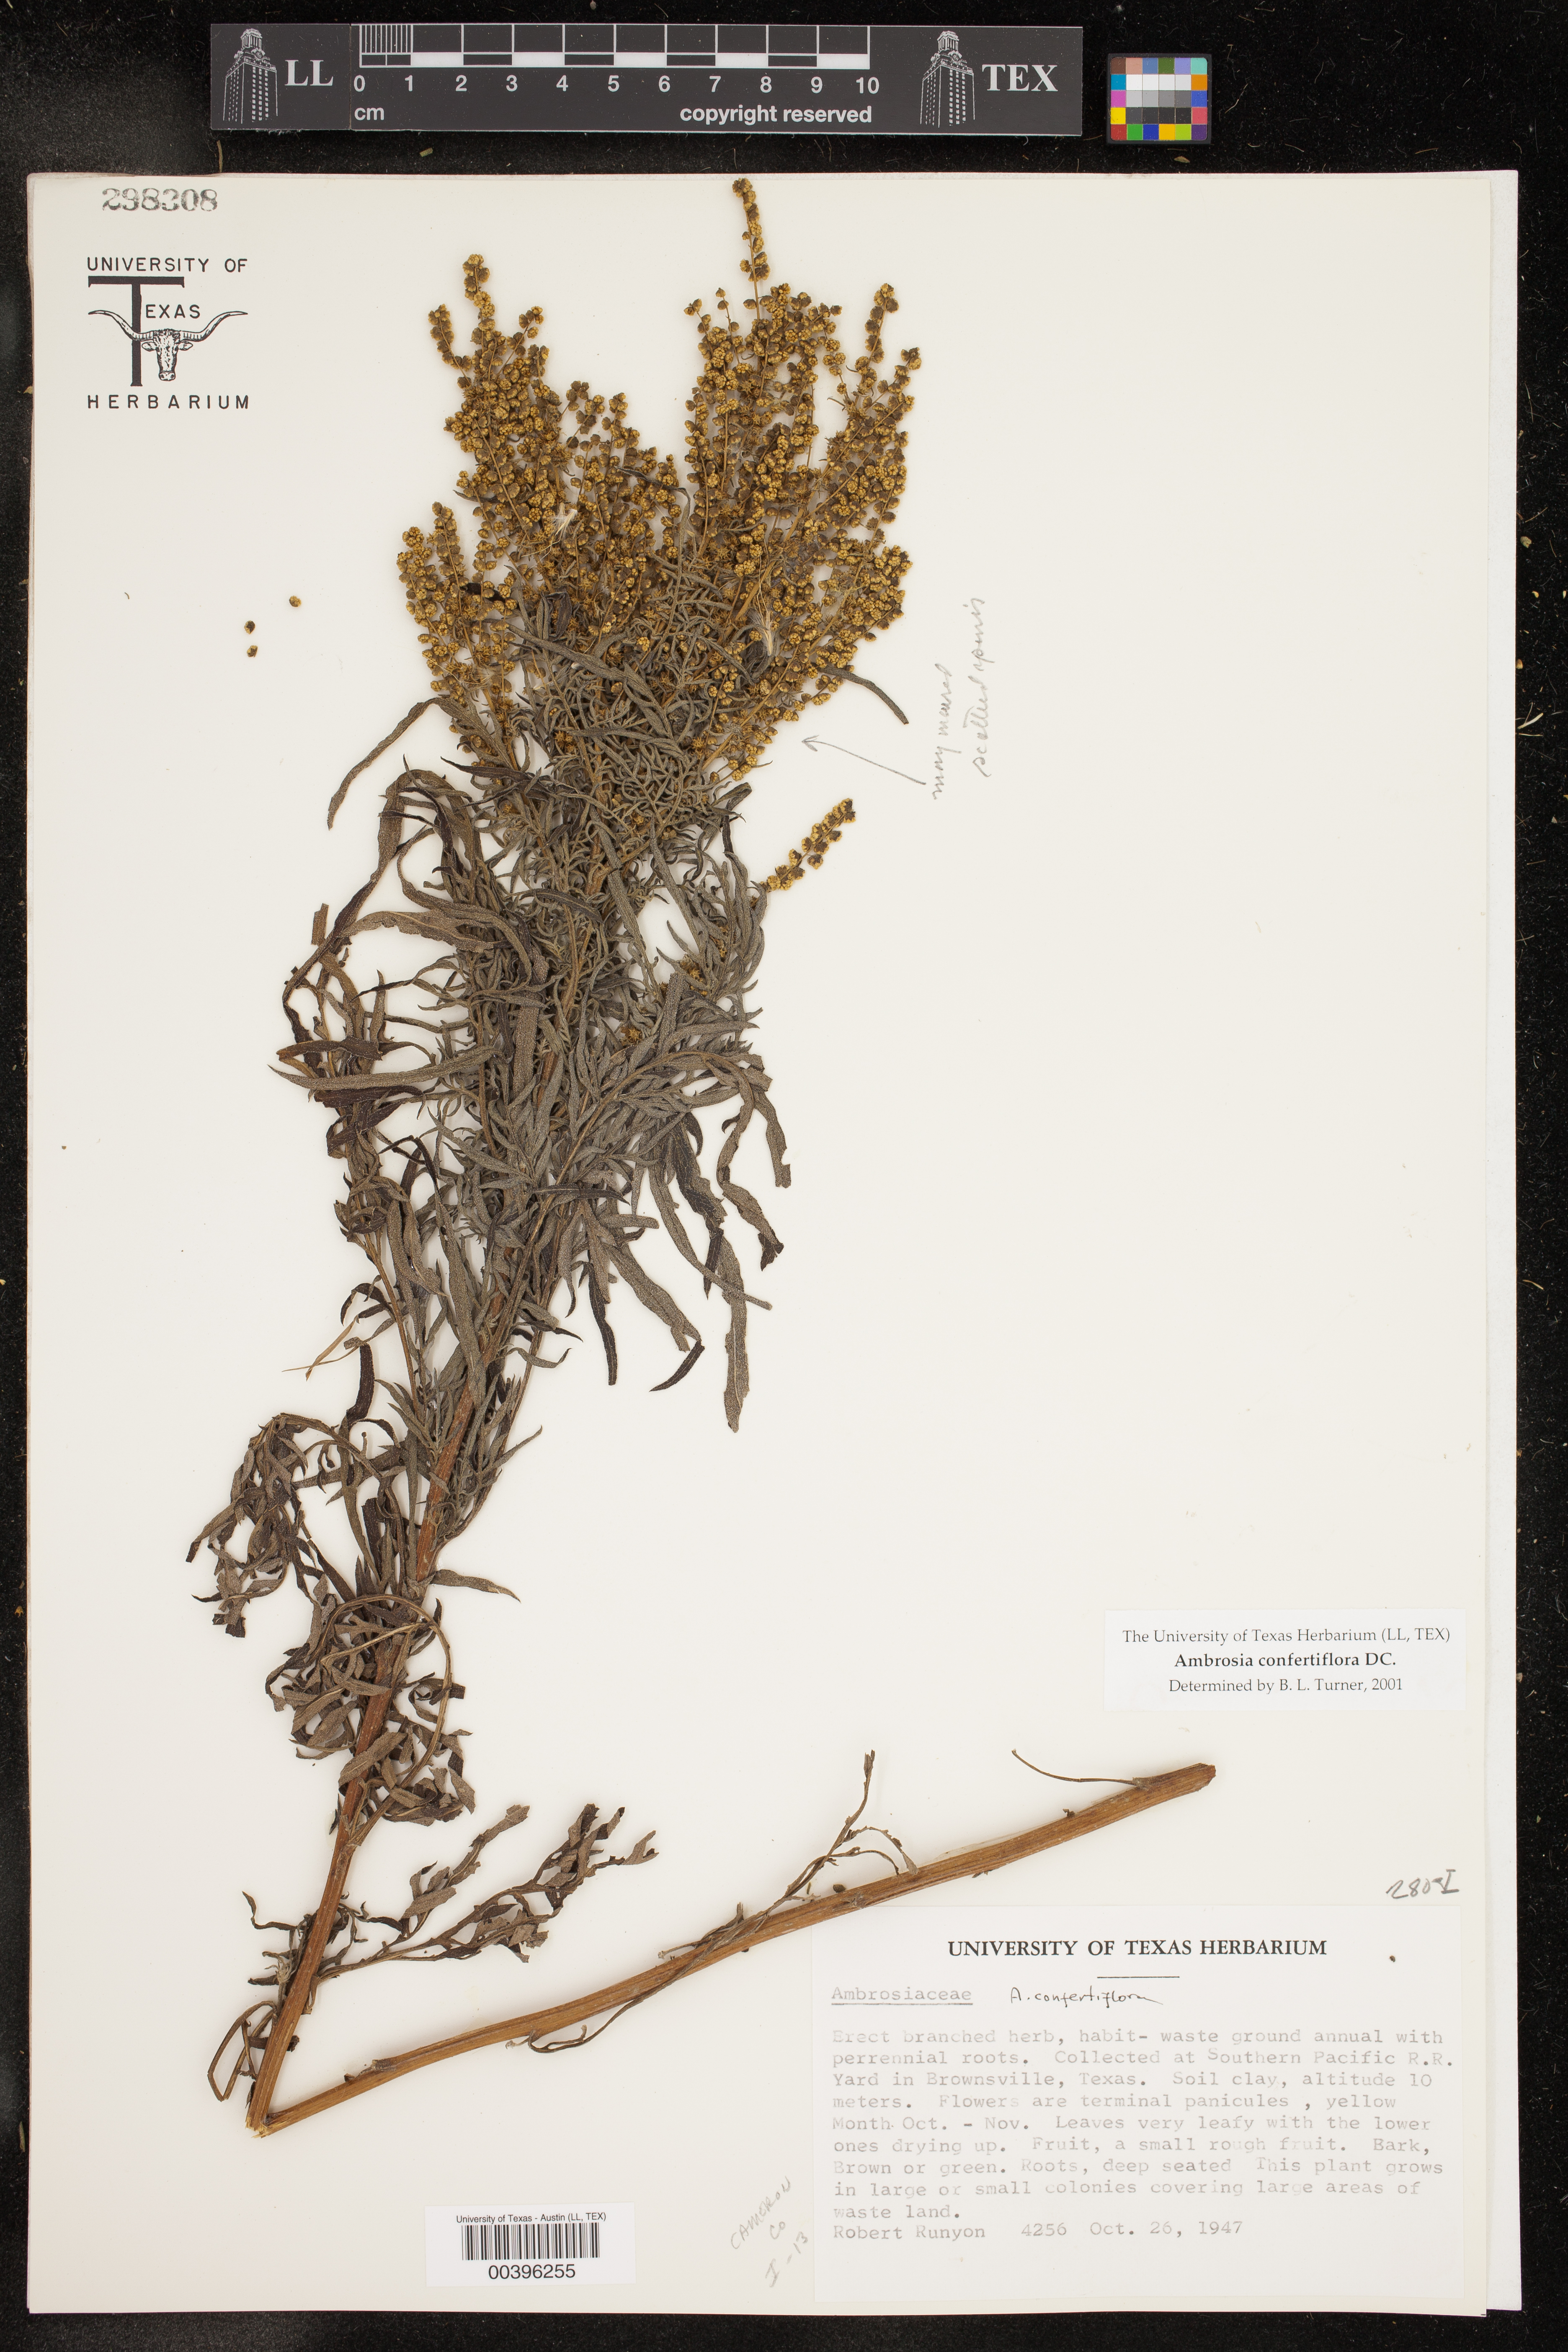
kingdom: Plantae
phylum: Tracheophyta
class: Magnoliopsida
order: Asterales
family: Asteraceae
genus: Ambrosia
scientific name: Ambrosia confertiflora
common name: Bur ragweed
